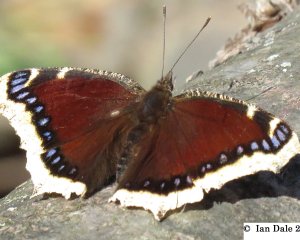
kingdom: Animalia
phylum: Arthropoda
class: Insecta
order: Lepidoptera
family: Nymphalidae
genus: Nymphalis
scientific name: Nymphalis antiopa
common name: Mourning Cloak
